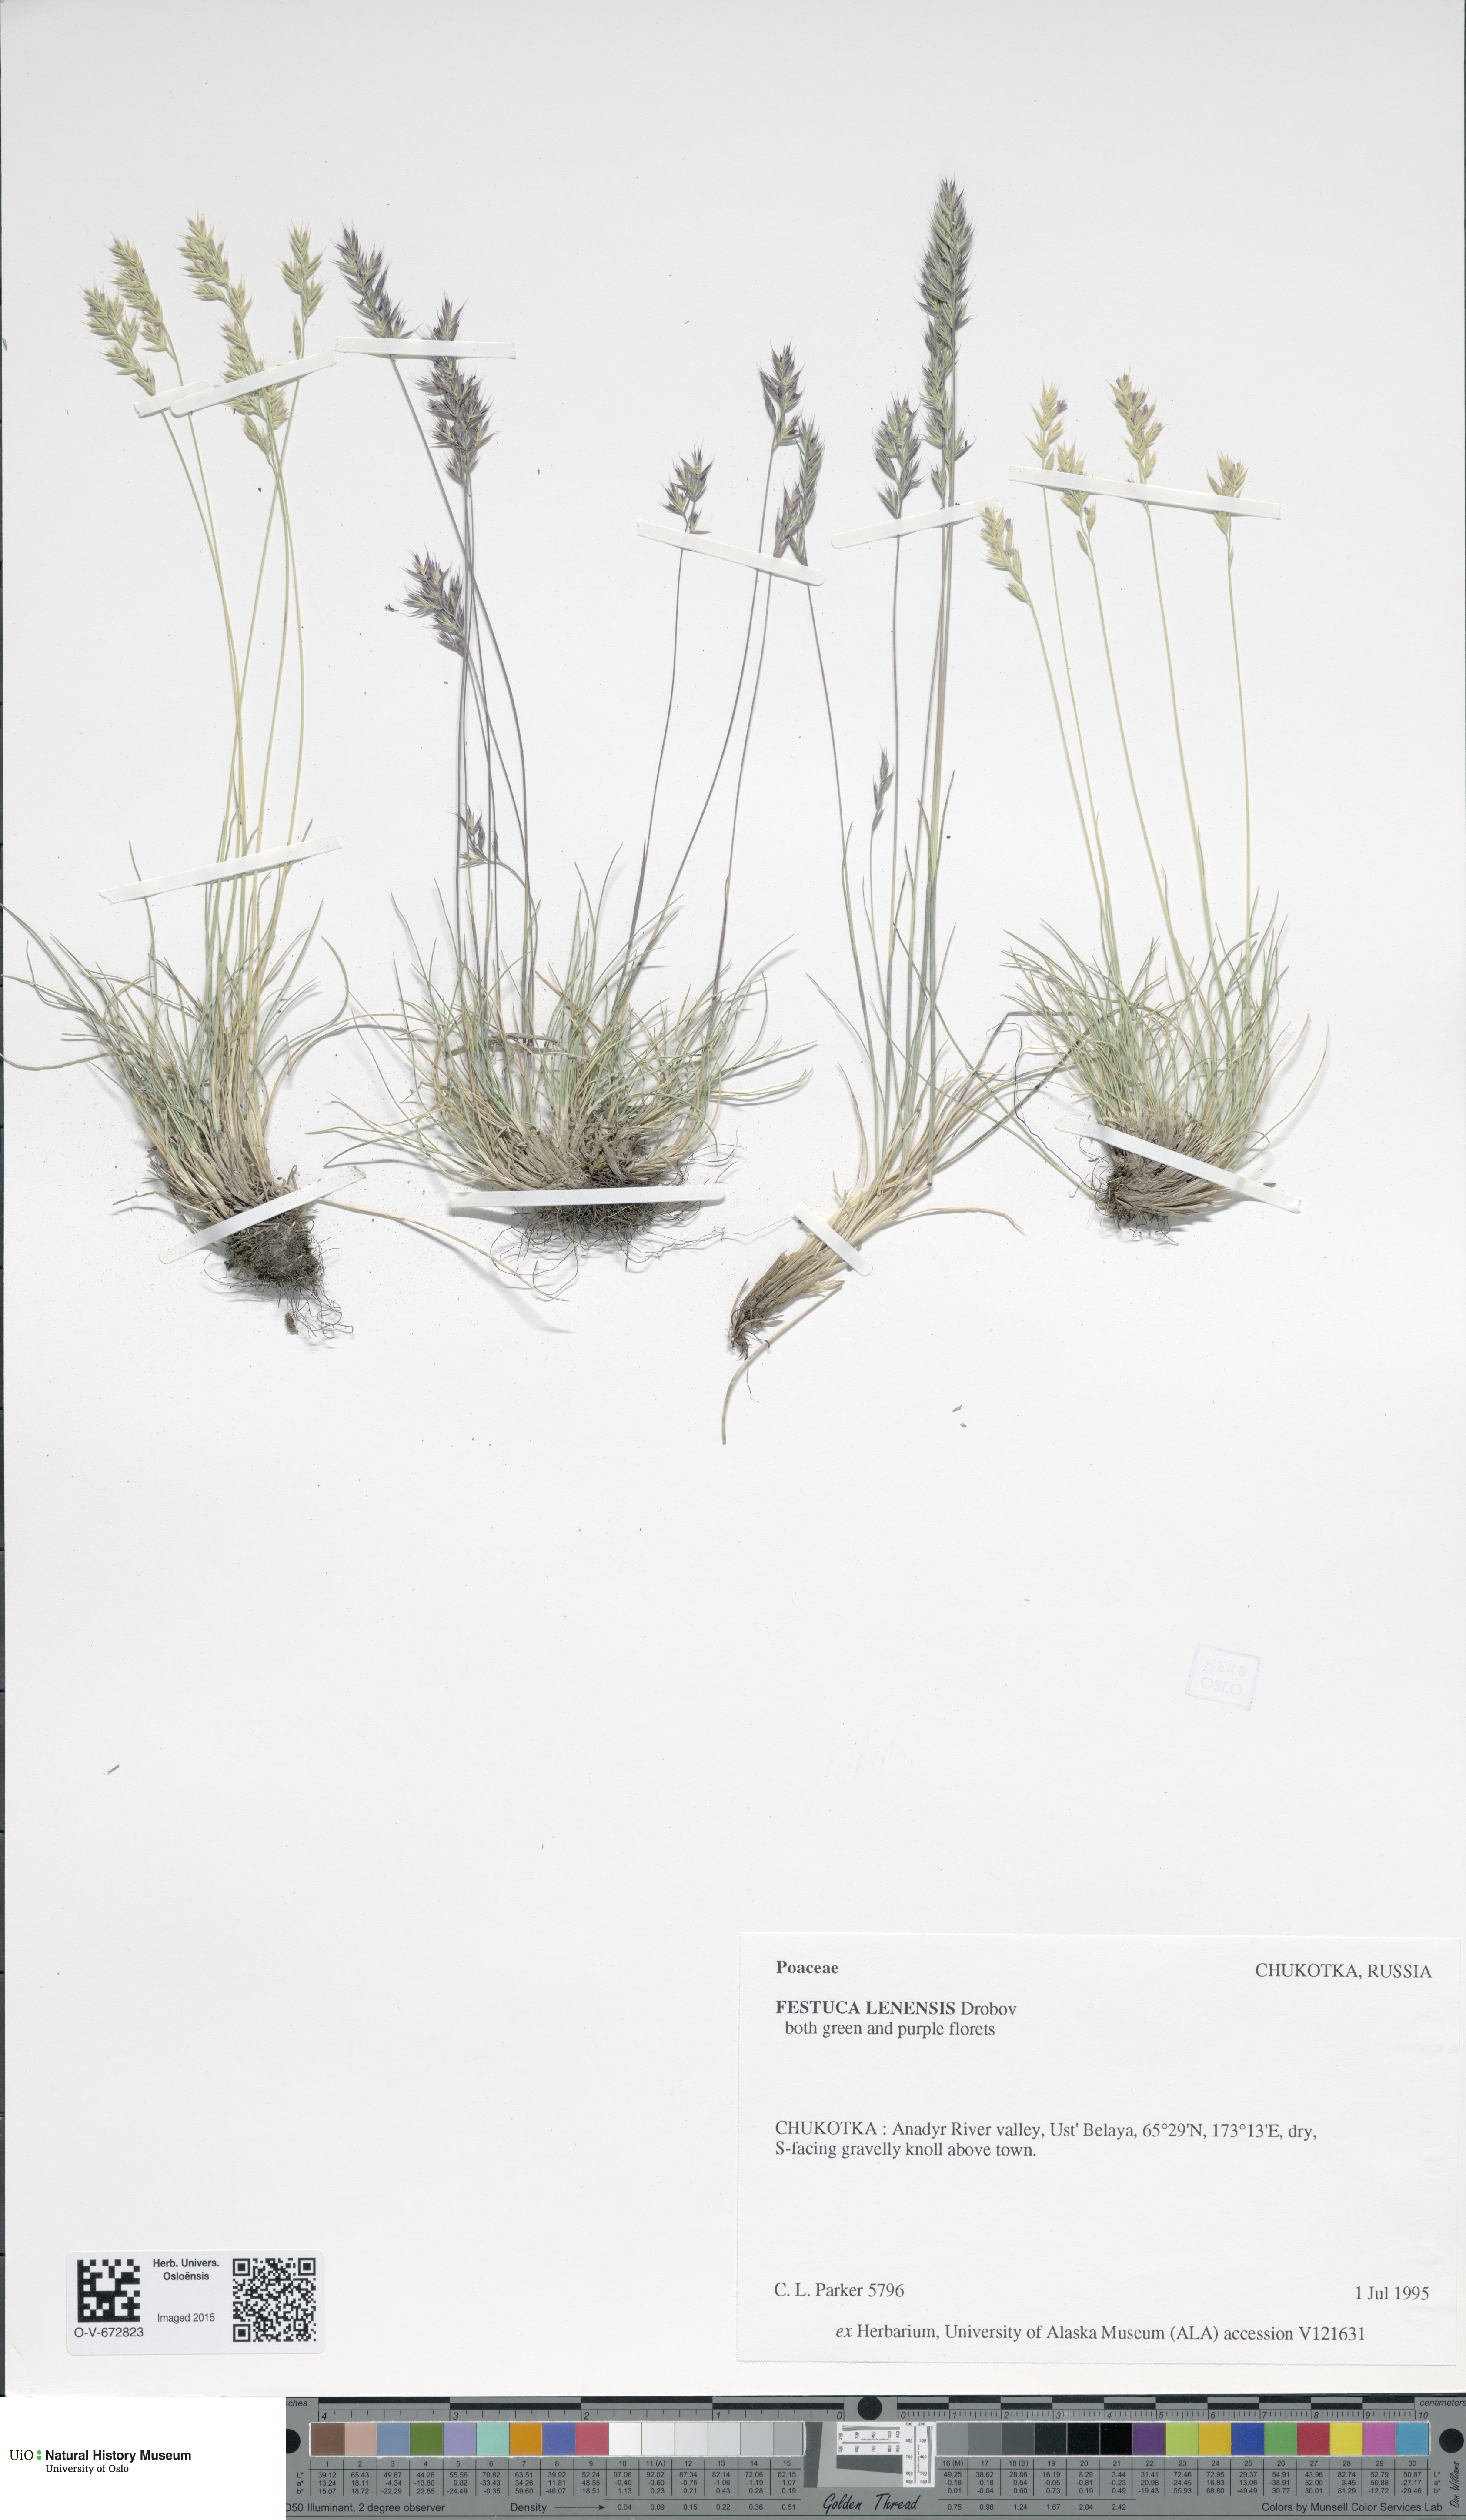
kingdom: Plantae
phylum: Tracheophyta
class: Liliopsida
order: Poales
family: Poaceae
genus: Festuca
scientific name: Festuca lenensis
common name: Lena river fescue
